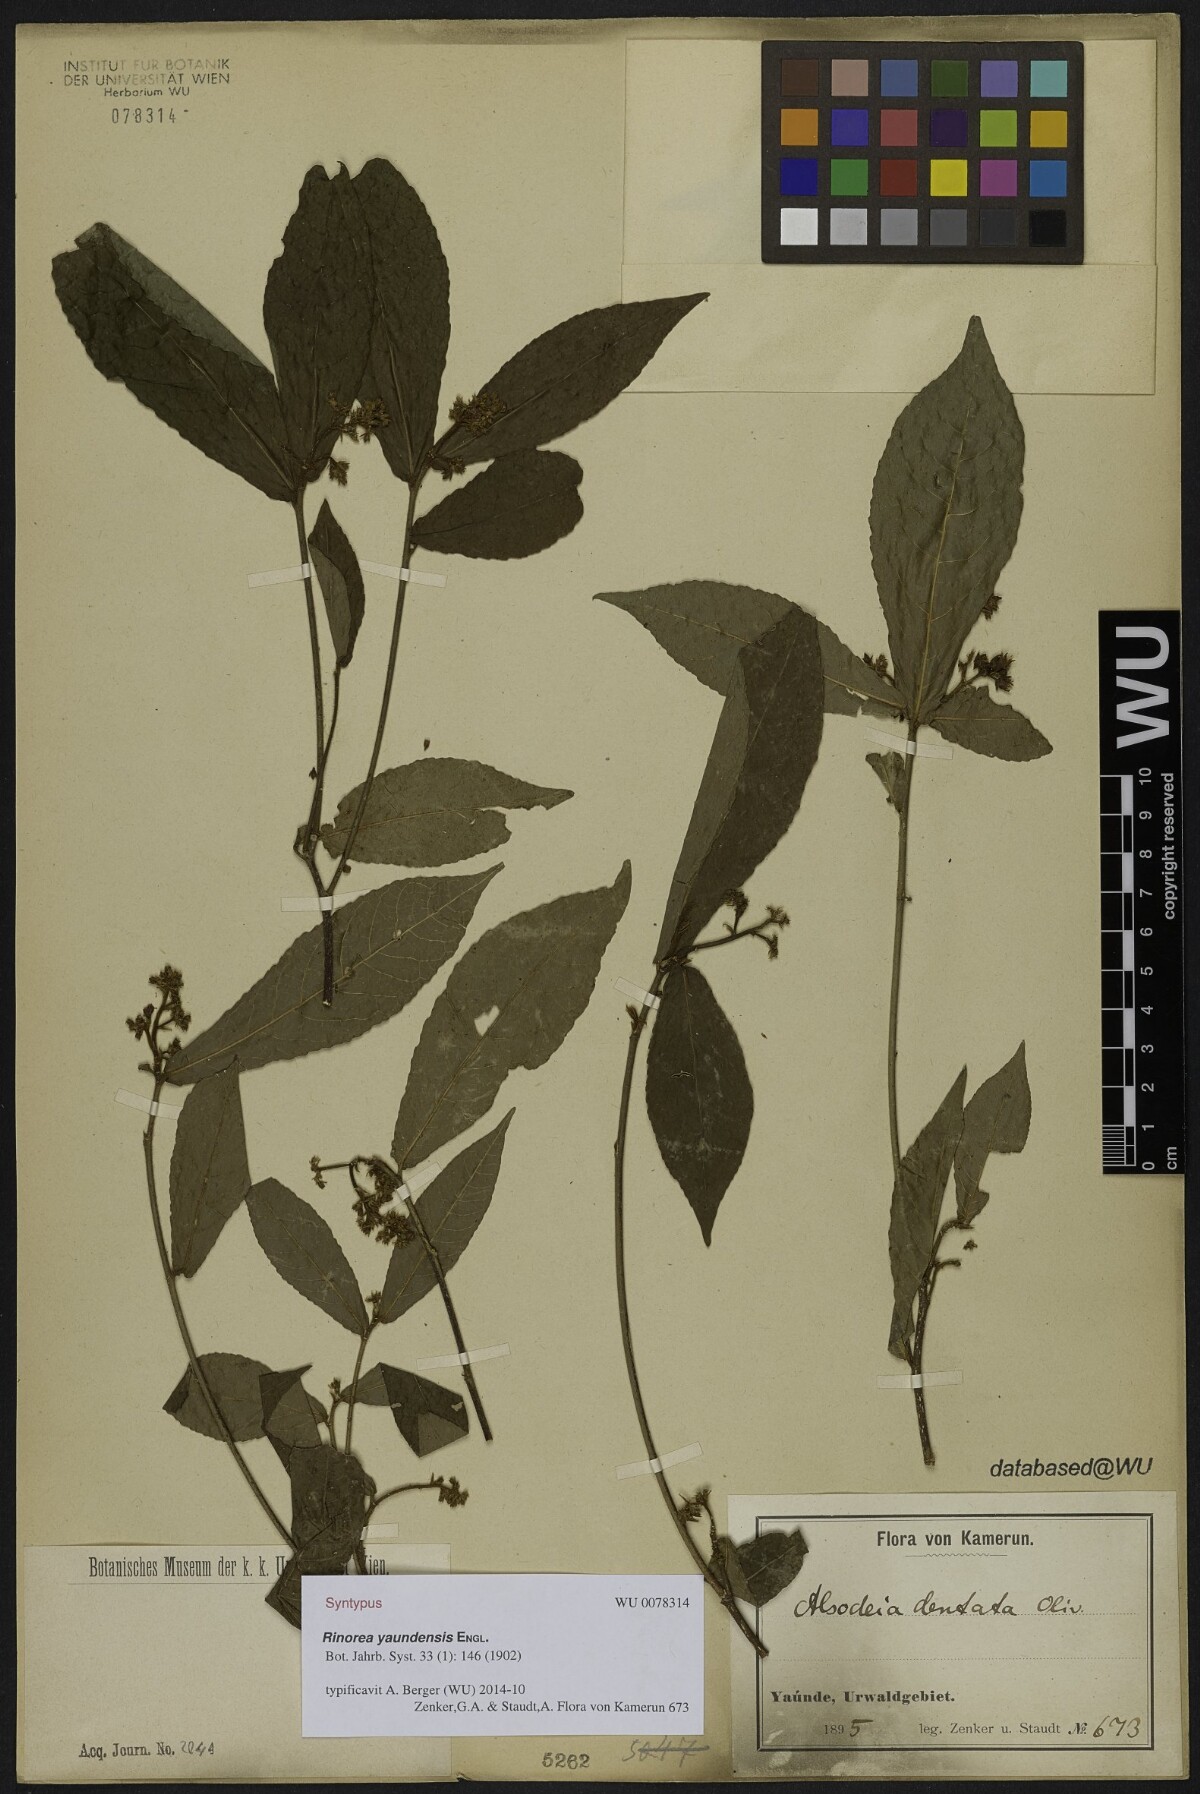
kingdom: Plantae
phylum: Tracheophyta
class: Magnoliopsida
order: Malpighiales
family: Violaceae
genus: Rinorea
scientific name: Rinorea yaundensis
